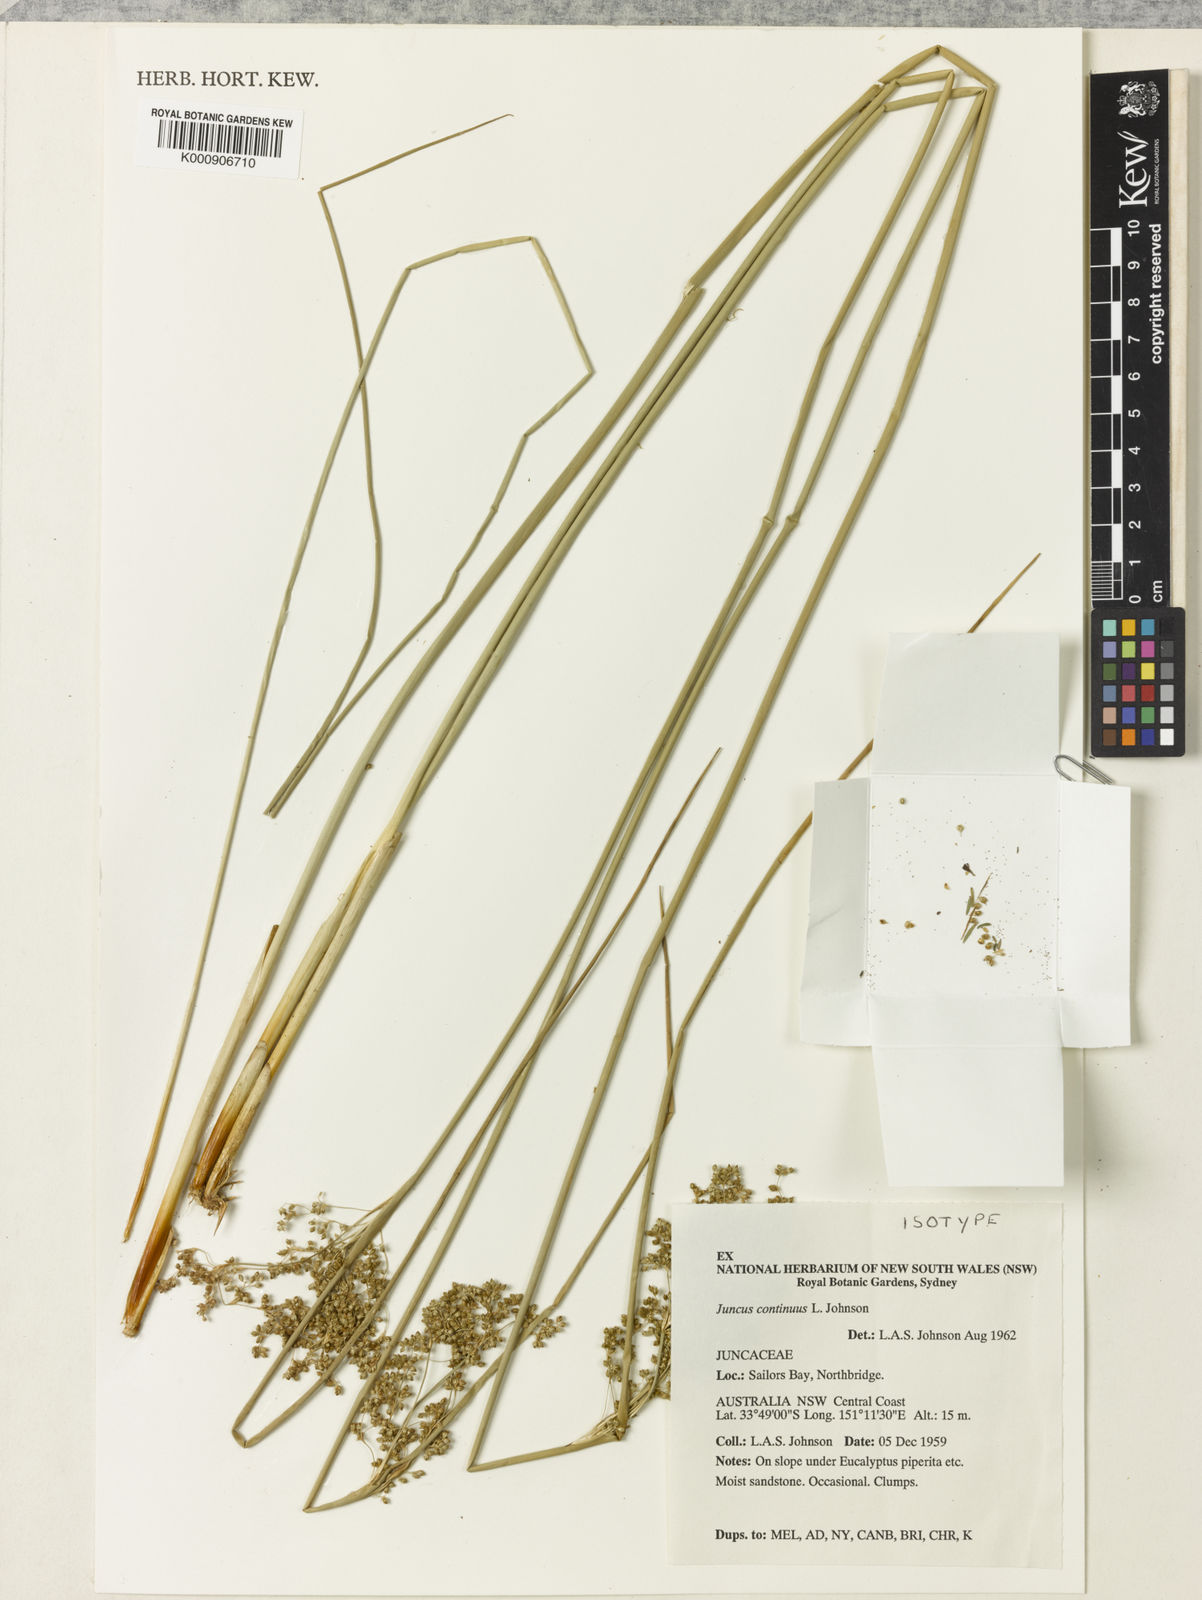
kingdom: Plantae
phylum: Tracheophyta
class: Liliopsida
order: Poales
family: Juncaceae
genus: Juncus
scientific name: Juncus continuus
